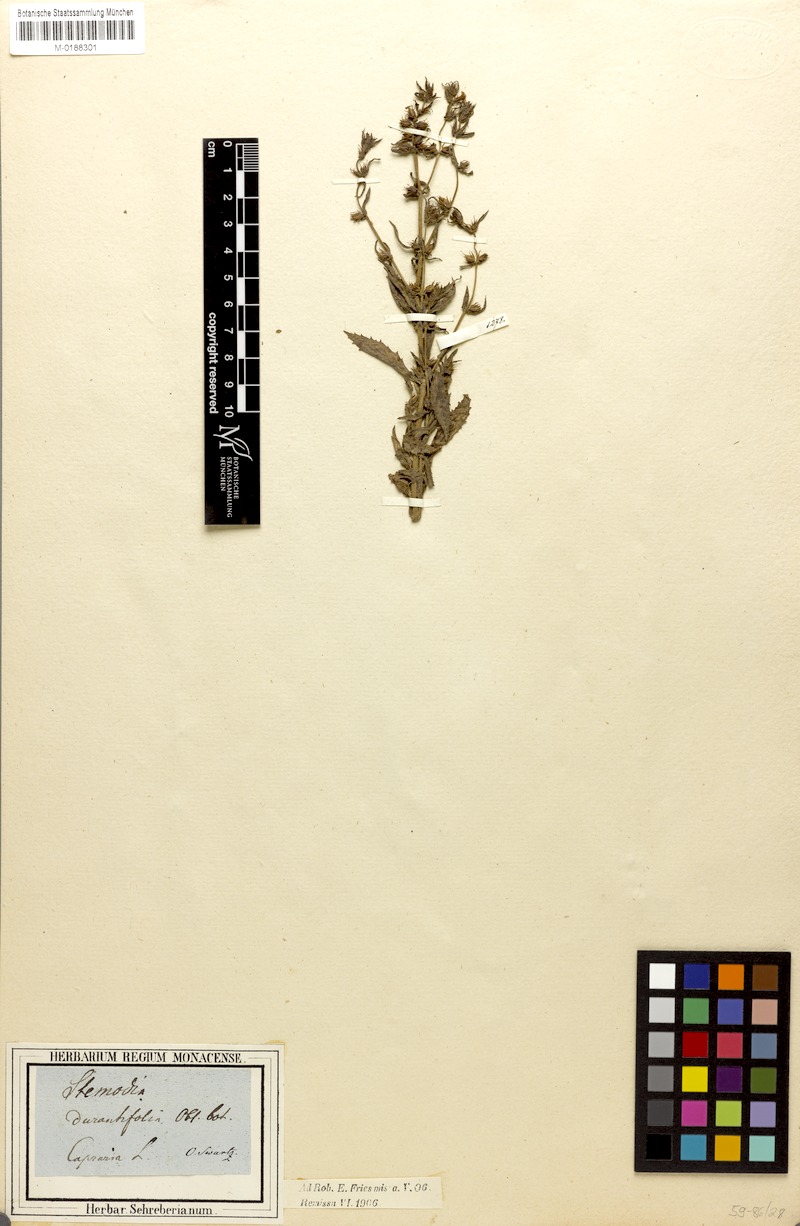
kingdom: Plantae
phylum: Tracheophyta
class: Magnoliopsida
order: Lamiales
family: Plantaginaceae
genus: Stemodia
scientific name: Stemodia durantifolia
